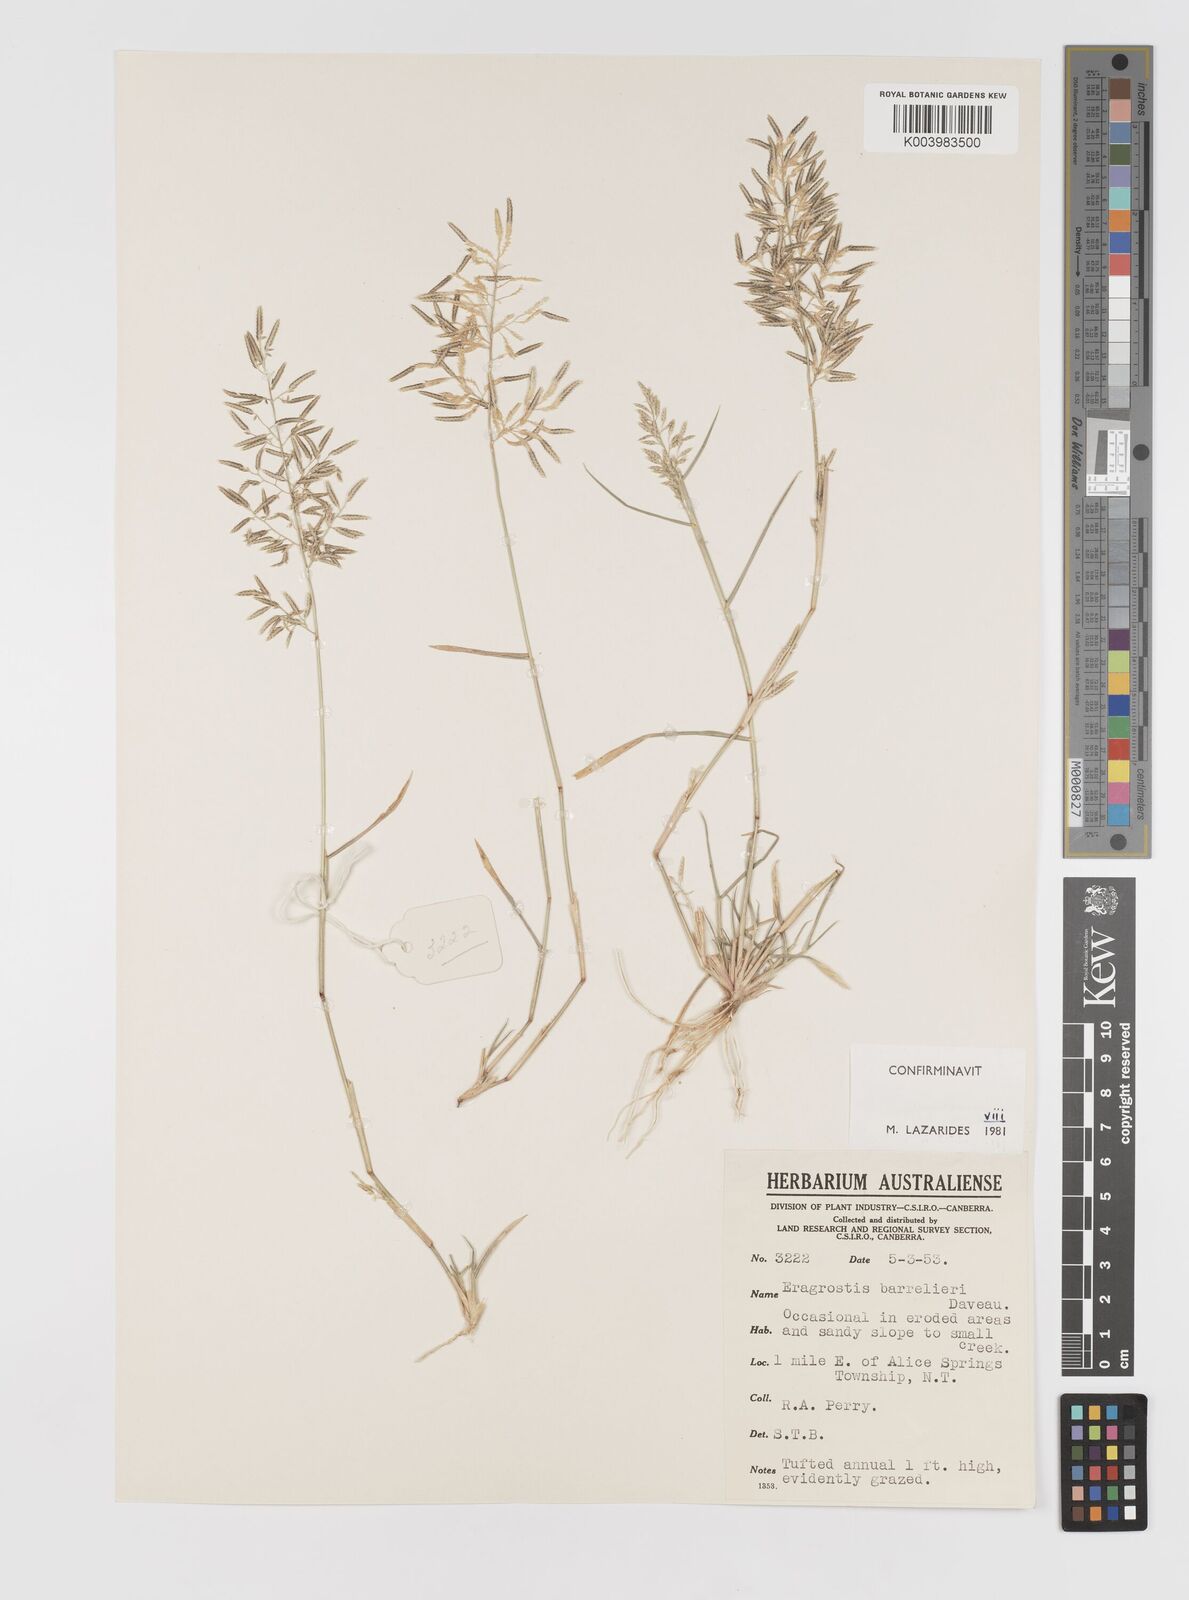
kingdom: Plantae
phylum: Tracheophyta
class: Liliopsida
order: Poales
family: Poaceae
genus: Eragrostis
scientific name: Eragrostis barrelieri
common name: Mediterranean lovegrass
